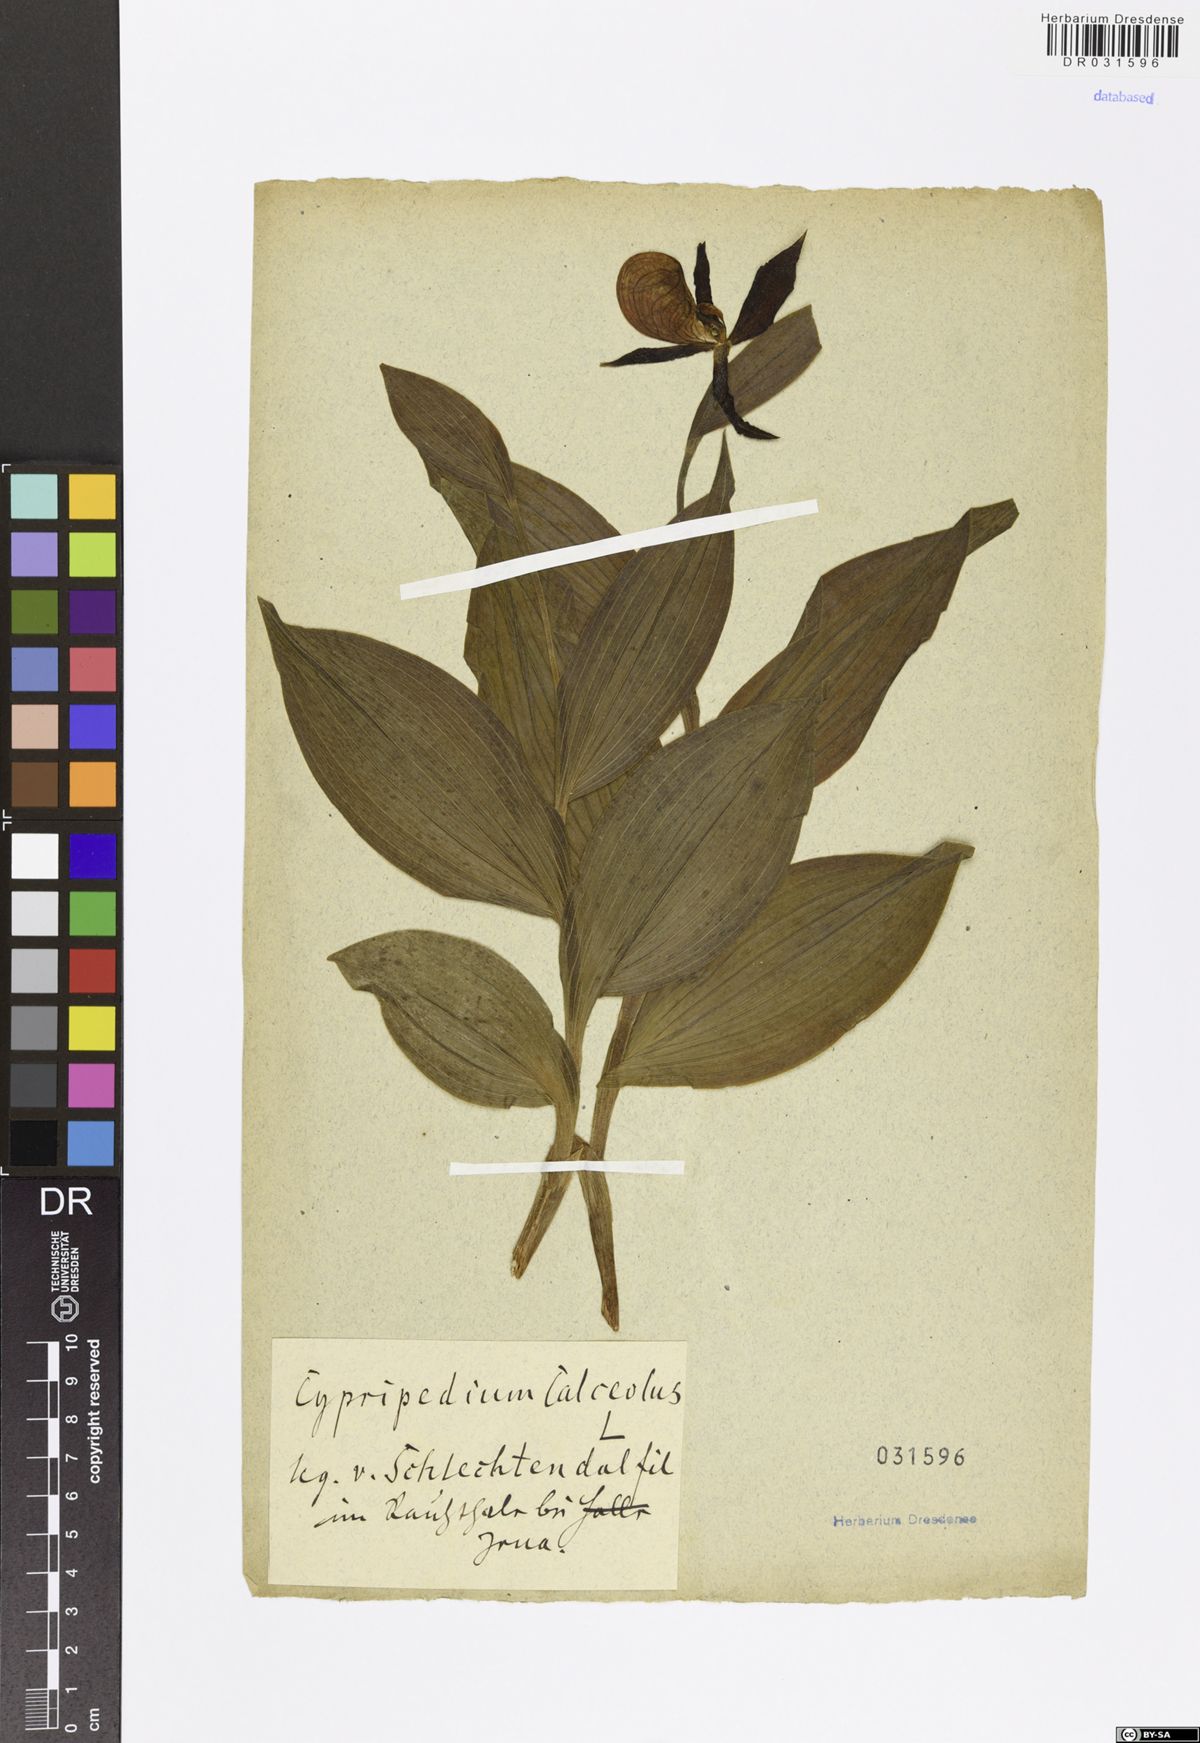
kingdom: Plantae
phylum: Tracheophyta
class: Liliopsida
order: Asparagales
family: Orchidaceae
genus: Cypripedium
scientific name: Cypripedium calceolus
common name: Lady's-slipper
